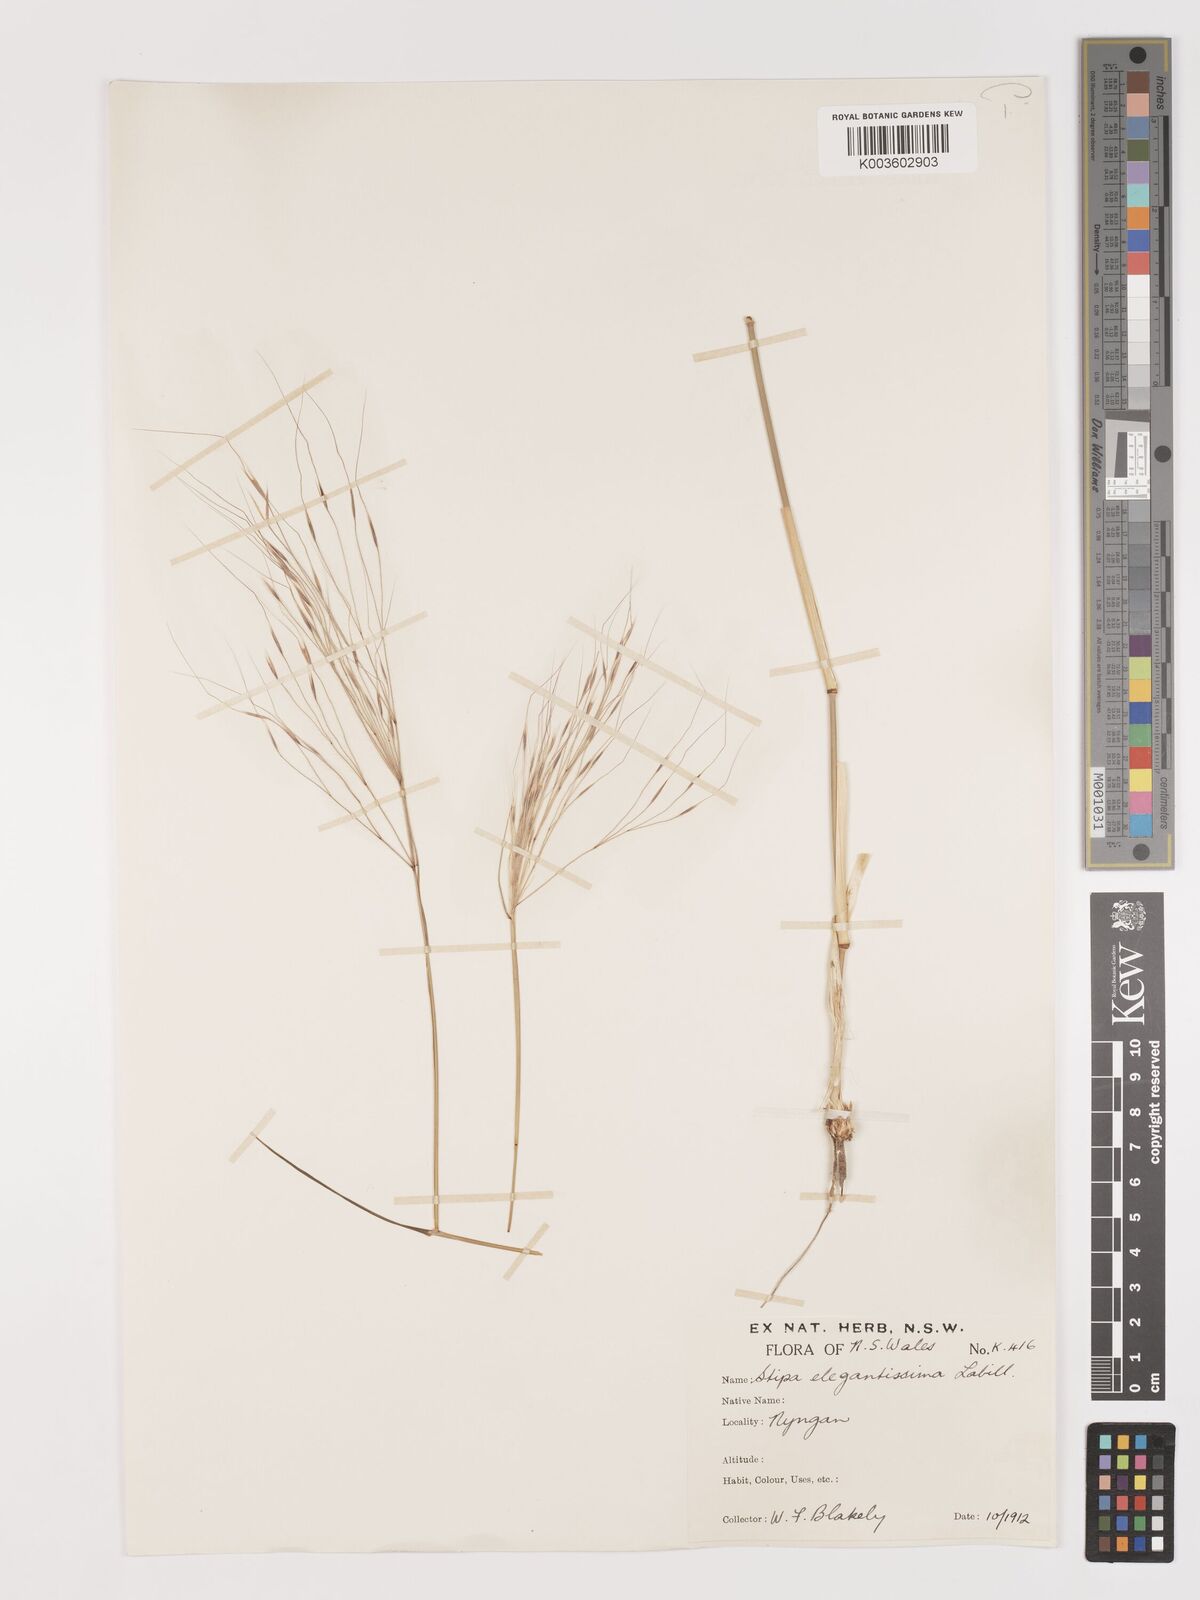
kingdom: Plantae
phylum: Tracheophyta
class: Liliopsida
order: Poales
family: Poaceae
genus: Austrostipa
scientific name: Austrostipa elegantissima
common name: Feather spear grass
